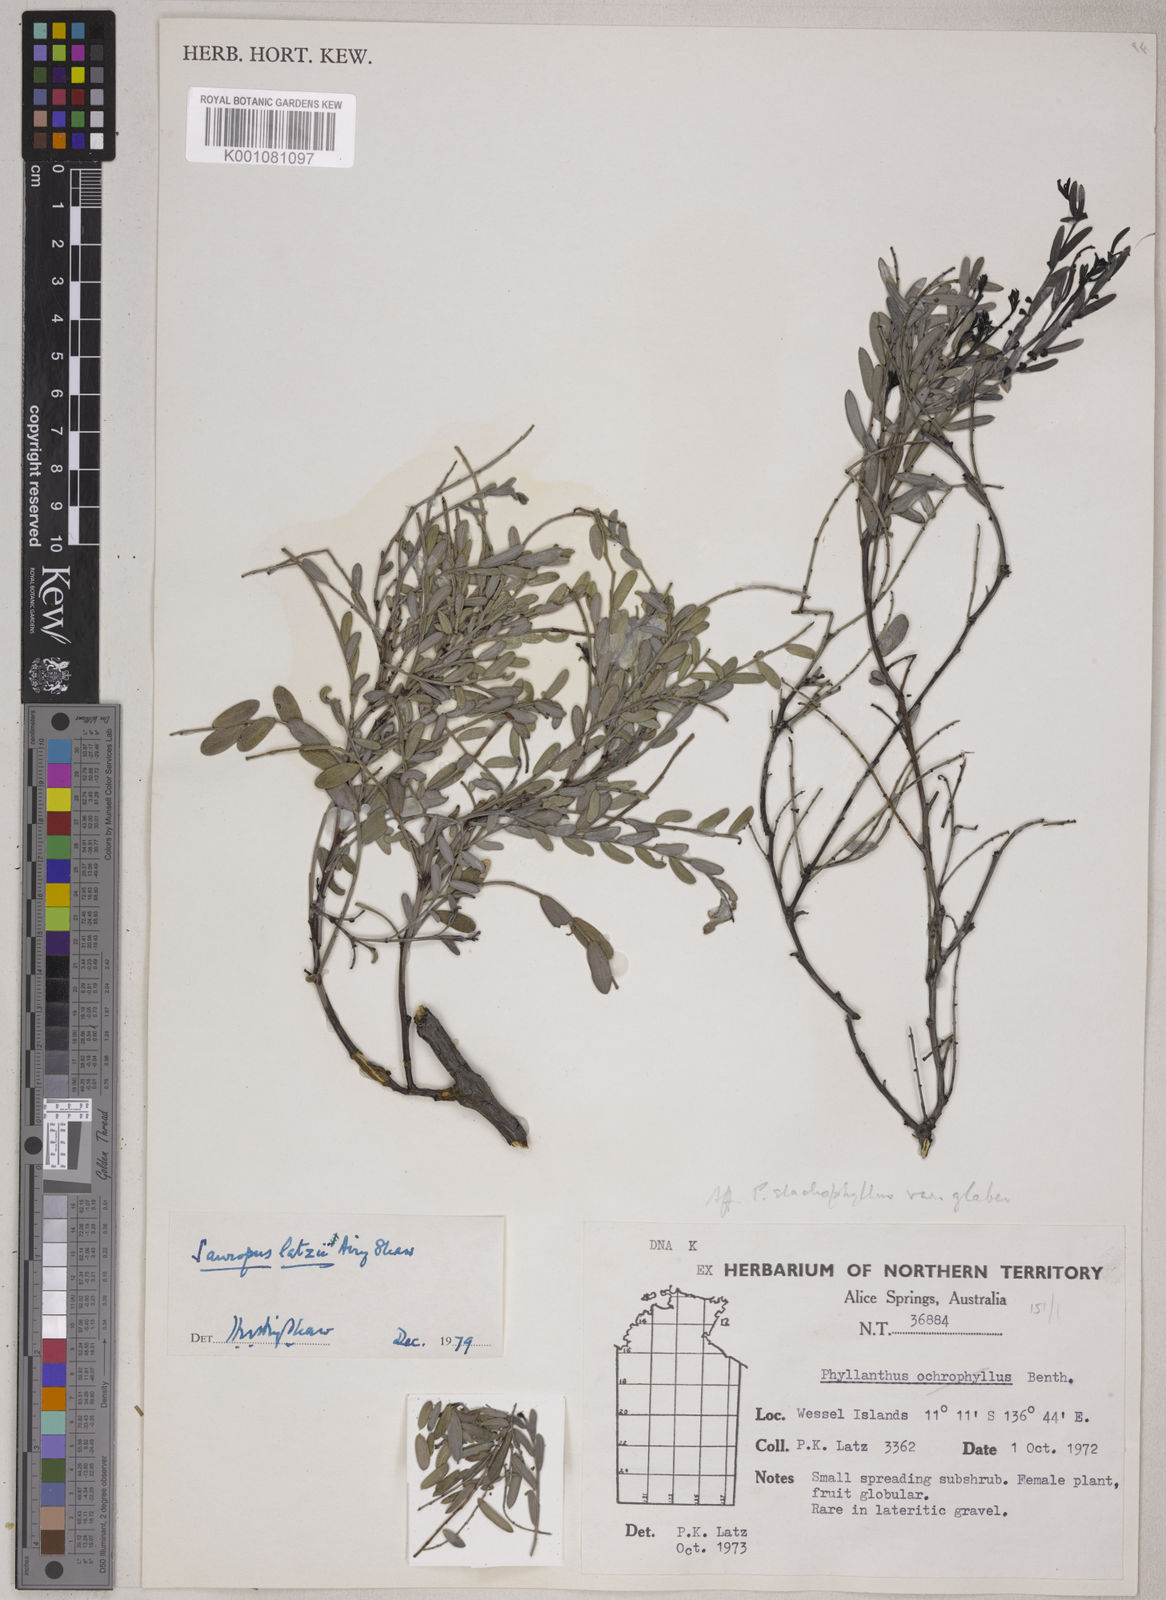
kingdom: Animalia
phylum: Chordata
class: Amphibia
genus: Sauropus
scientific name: Sauropus
